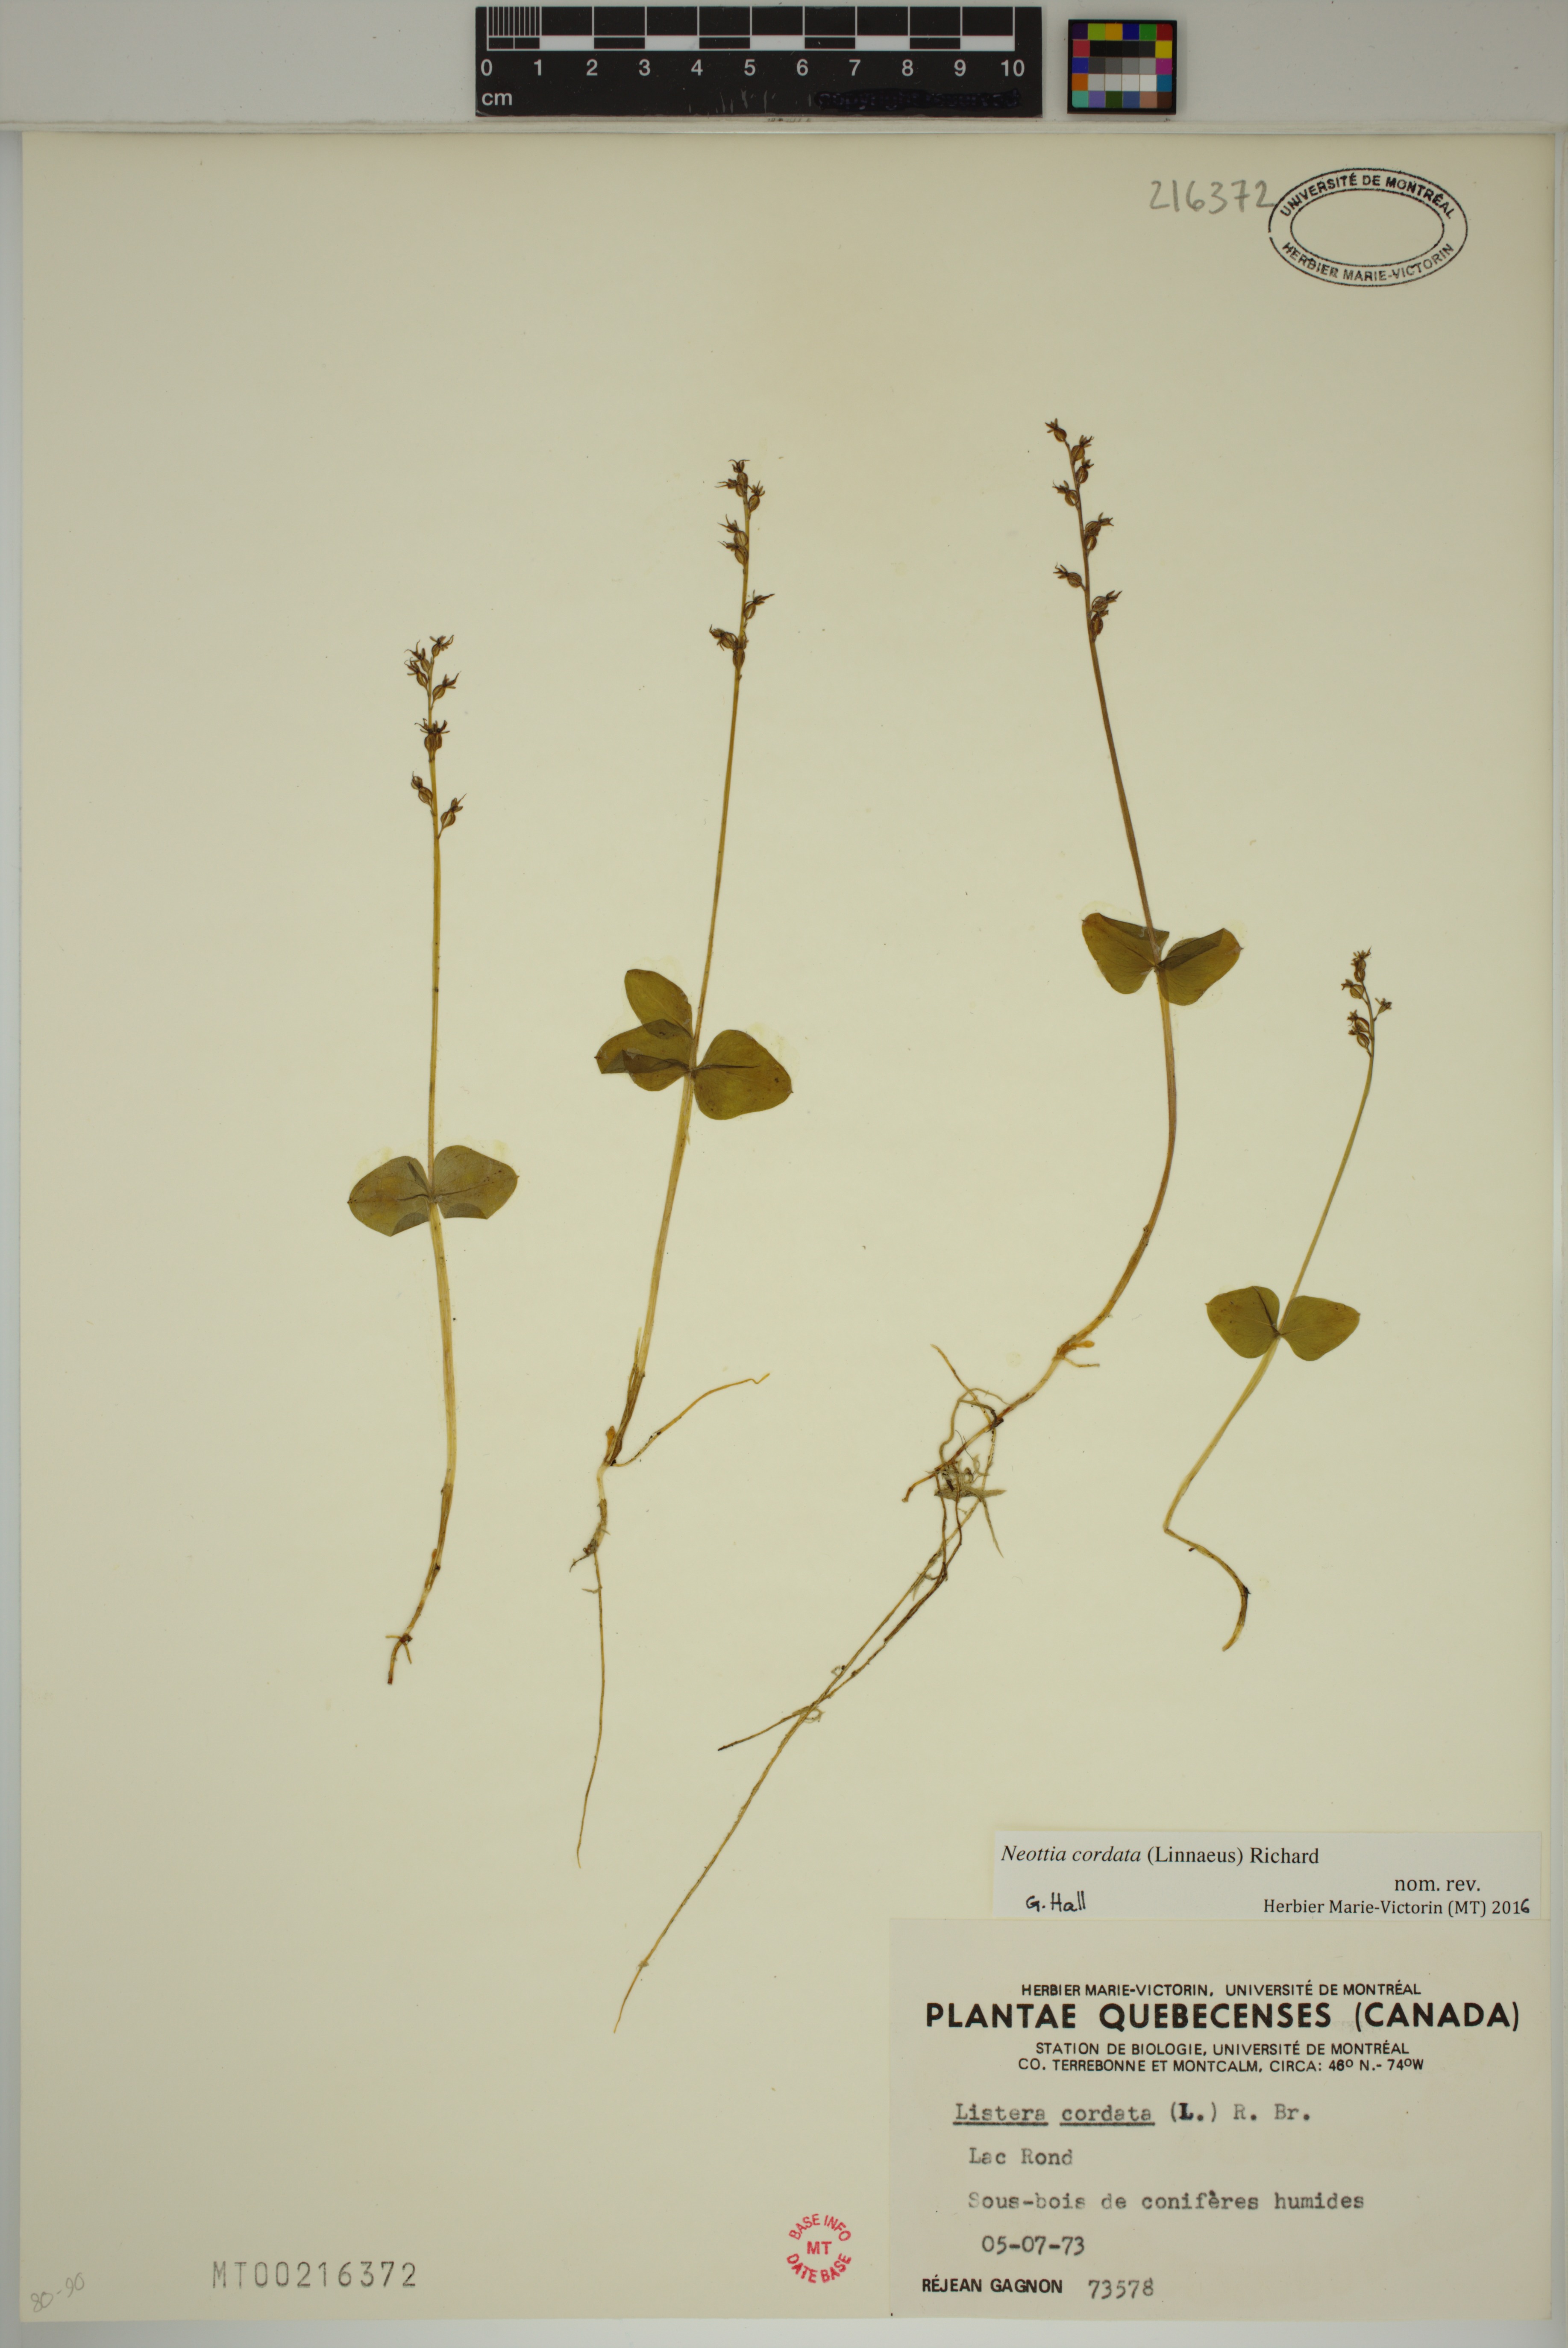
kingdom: Plantae
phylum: Tracheophyta
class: Liliopsida
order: Asparagales
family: Orchidaceae
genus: Neottia
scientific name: Neottia cordata
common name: Lesser twayblade
